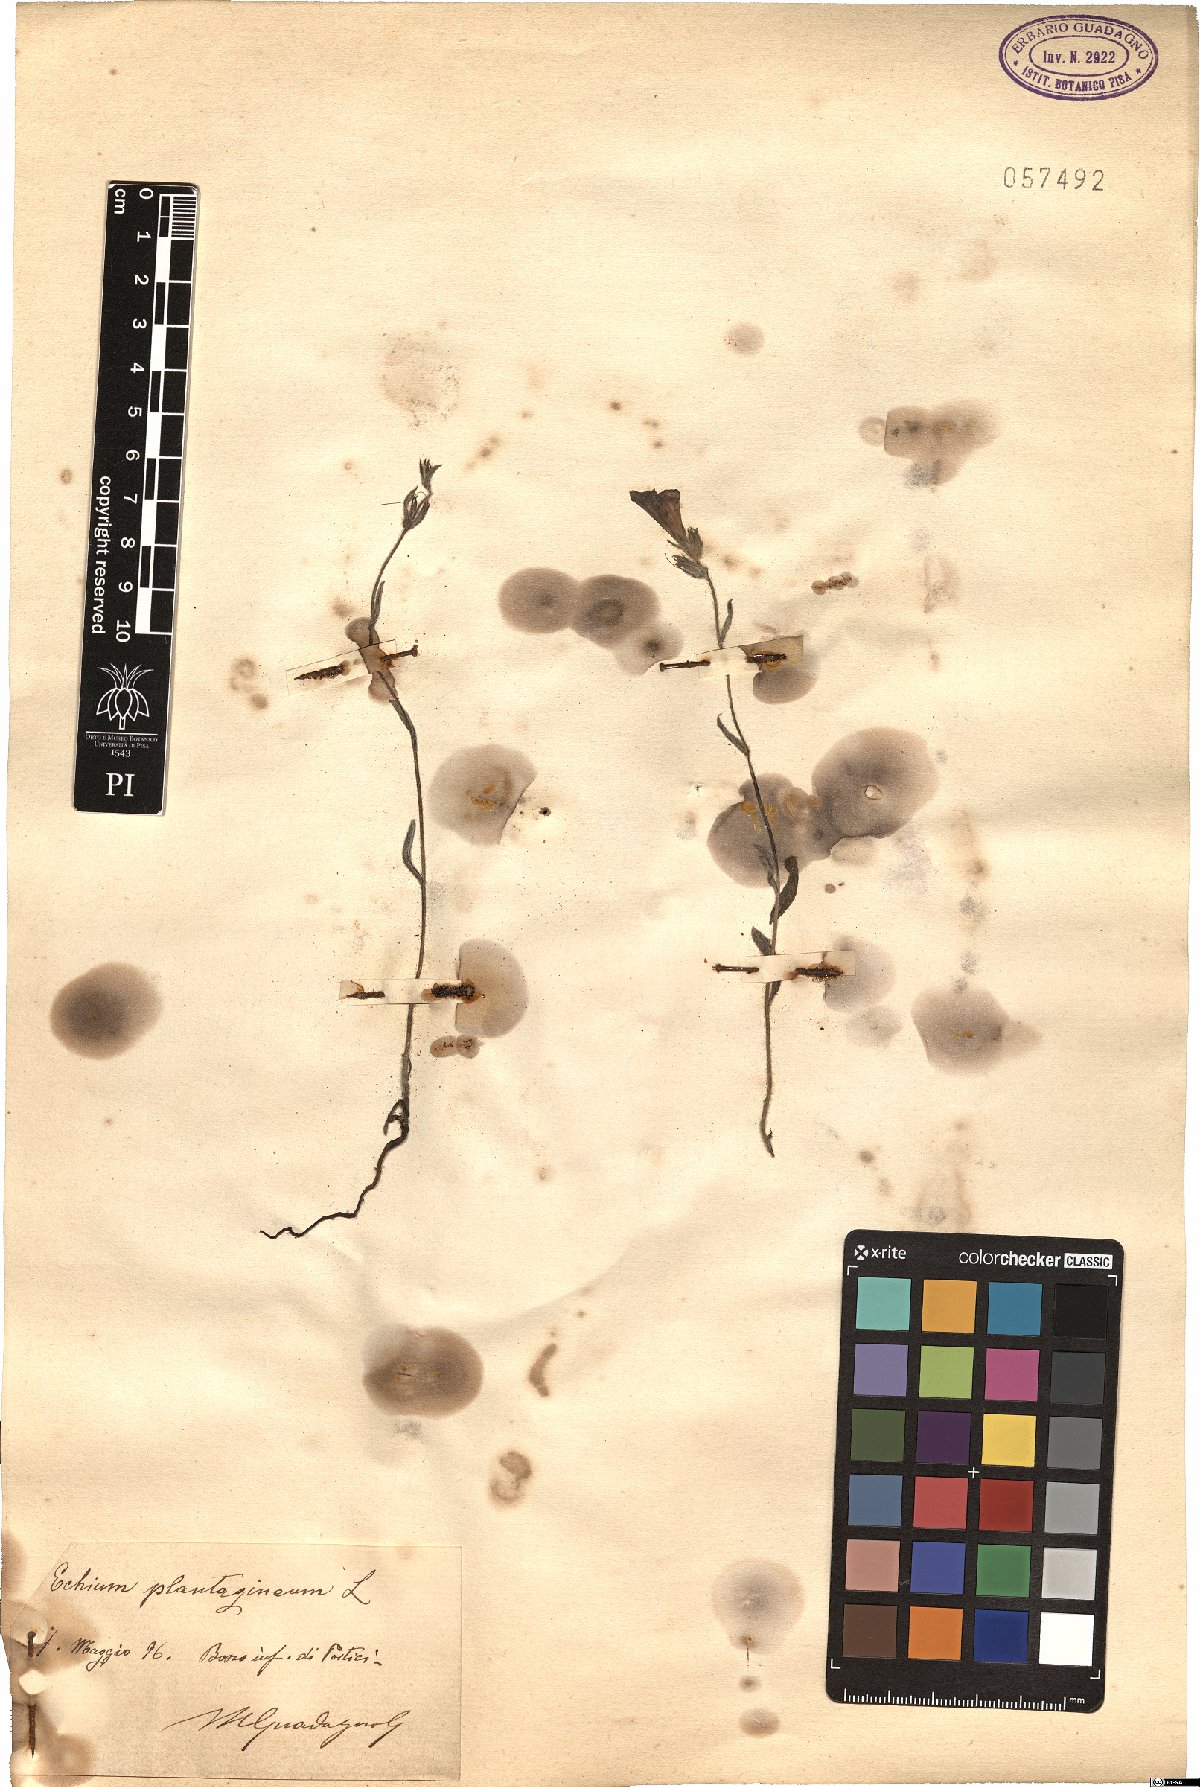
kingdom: Plantae
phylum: Tracheophyta
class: Magnoliopsida
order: Boraginales
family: Boraginaceae
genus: Echium
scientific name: Echium plantagineum
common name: Purple viper's-bugloss
